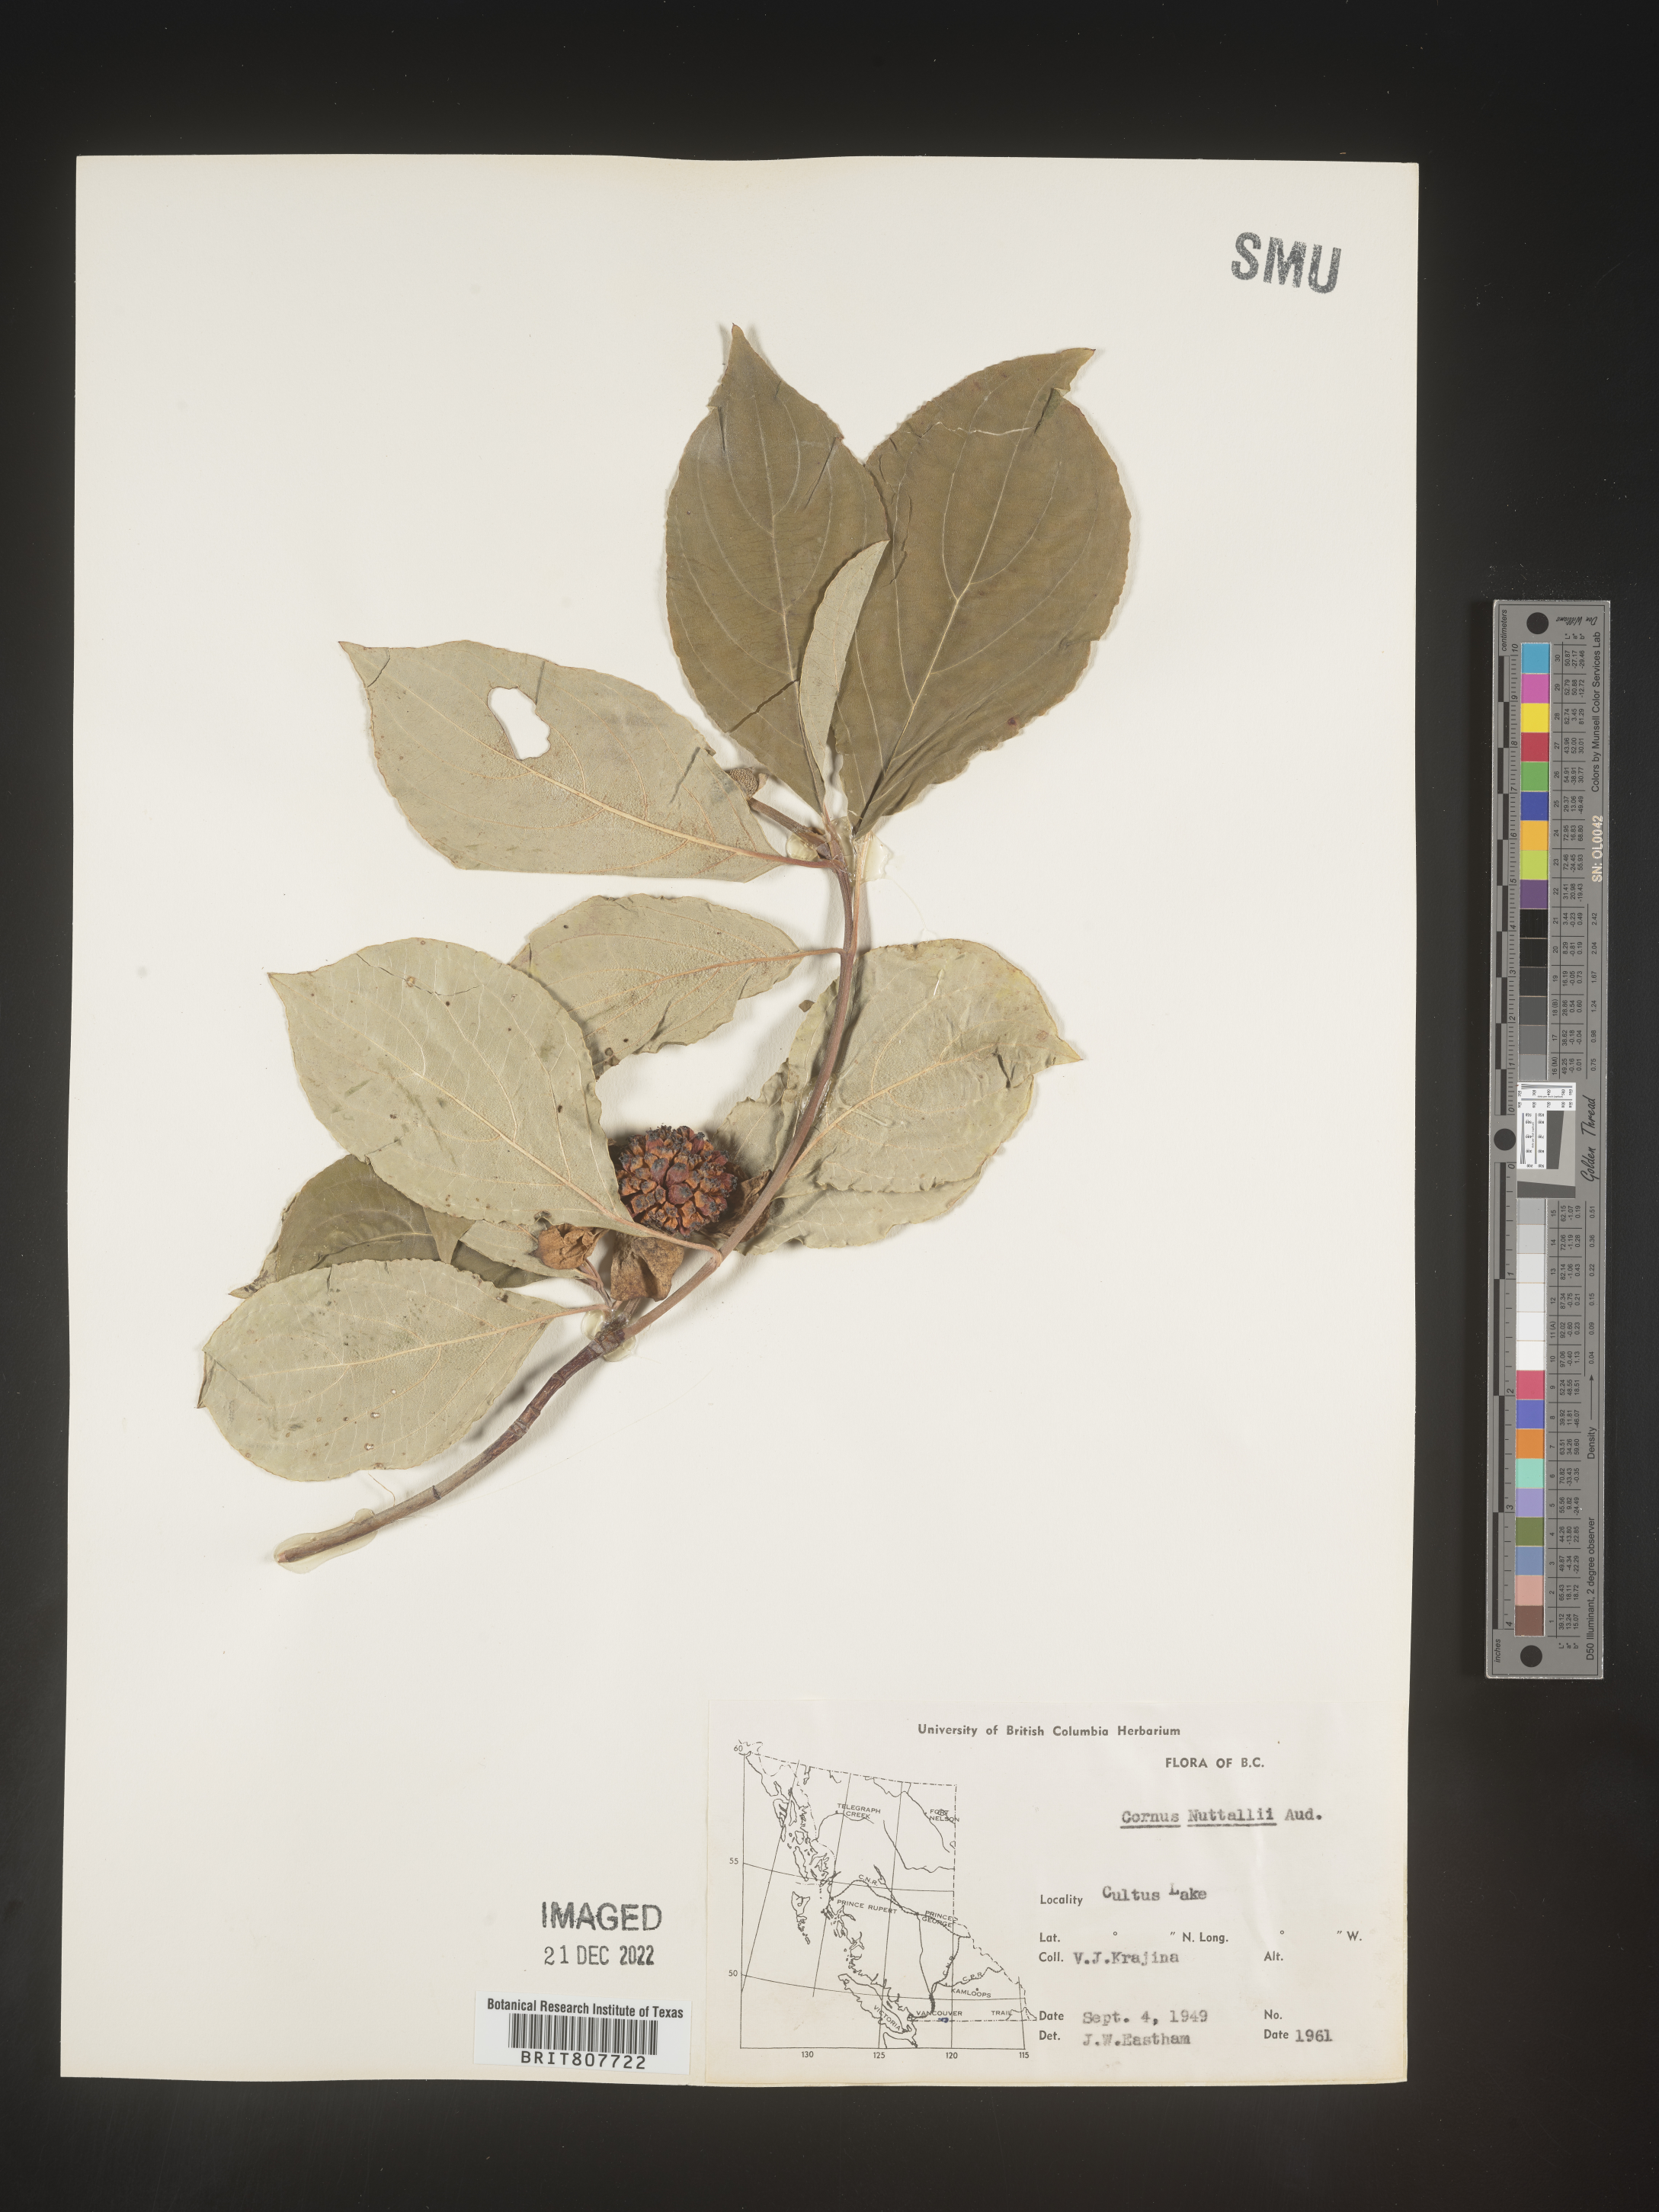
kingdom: Plantae
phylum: Tracheophyta
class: Magnoliopsida
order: Cornales
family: Cornaceae
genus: Cornus
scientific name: Cornus nuttallii
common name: Pacific dogwood
